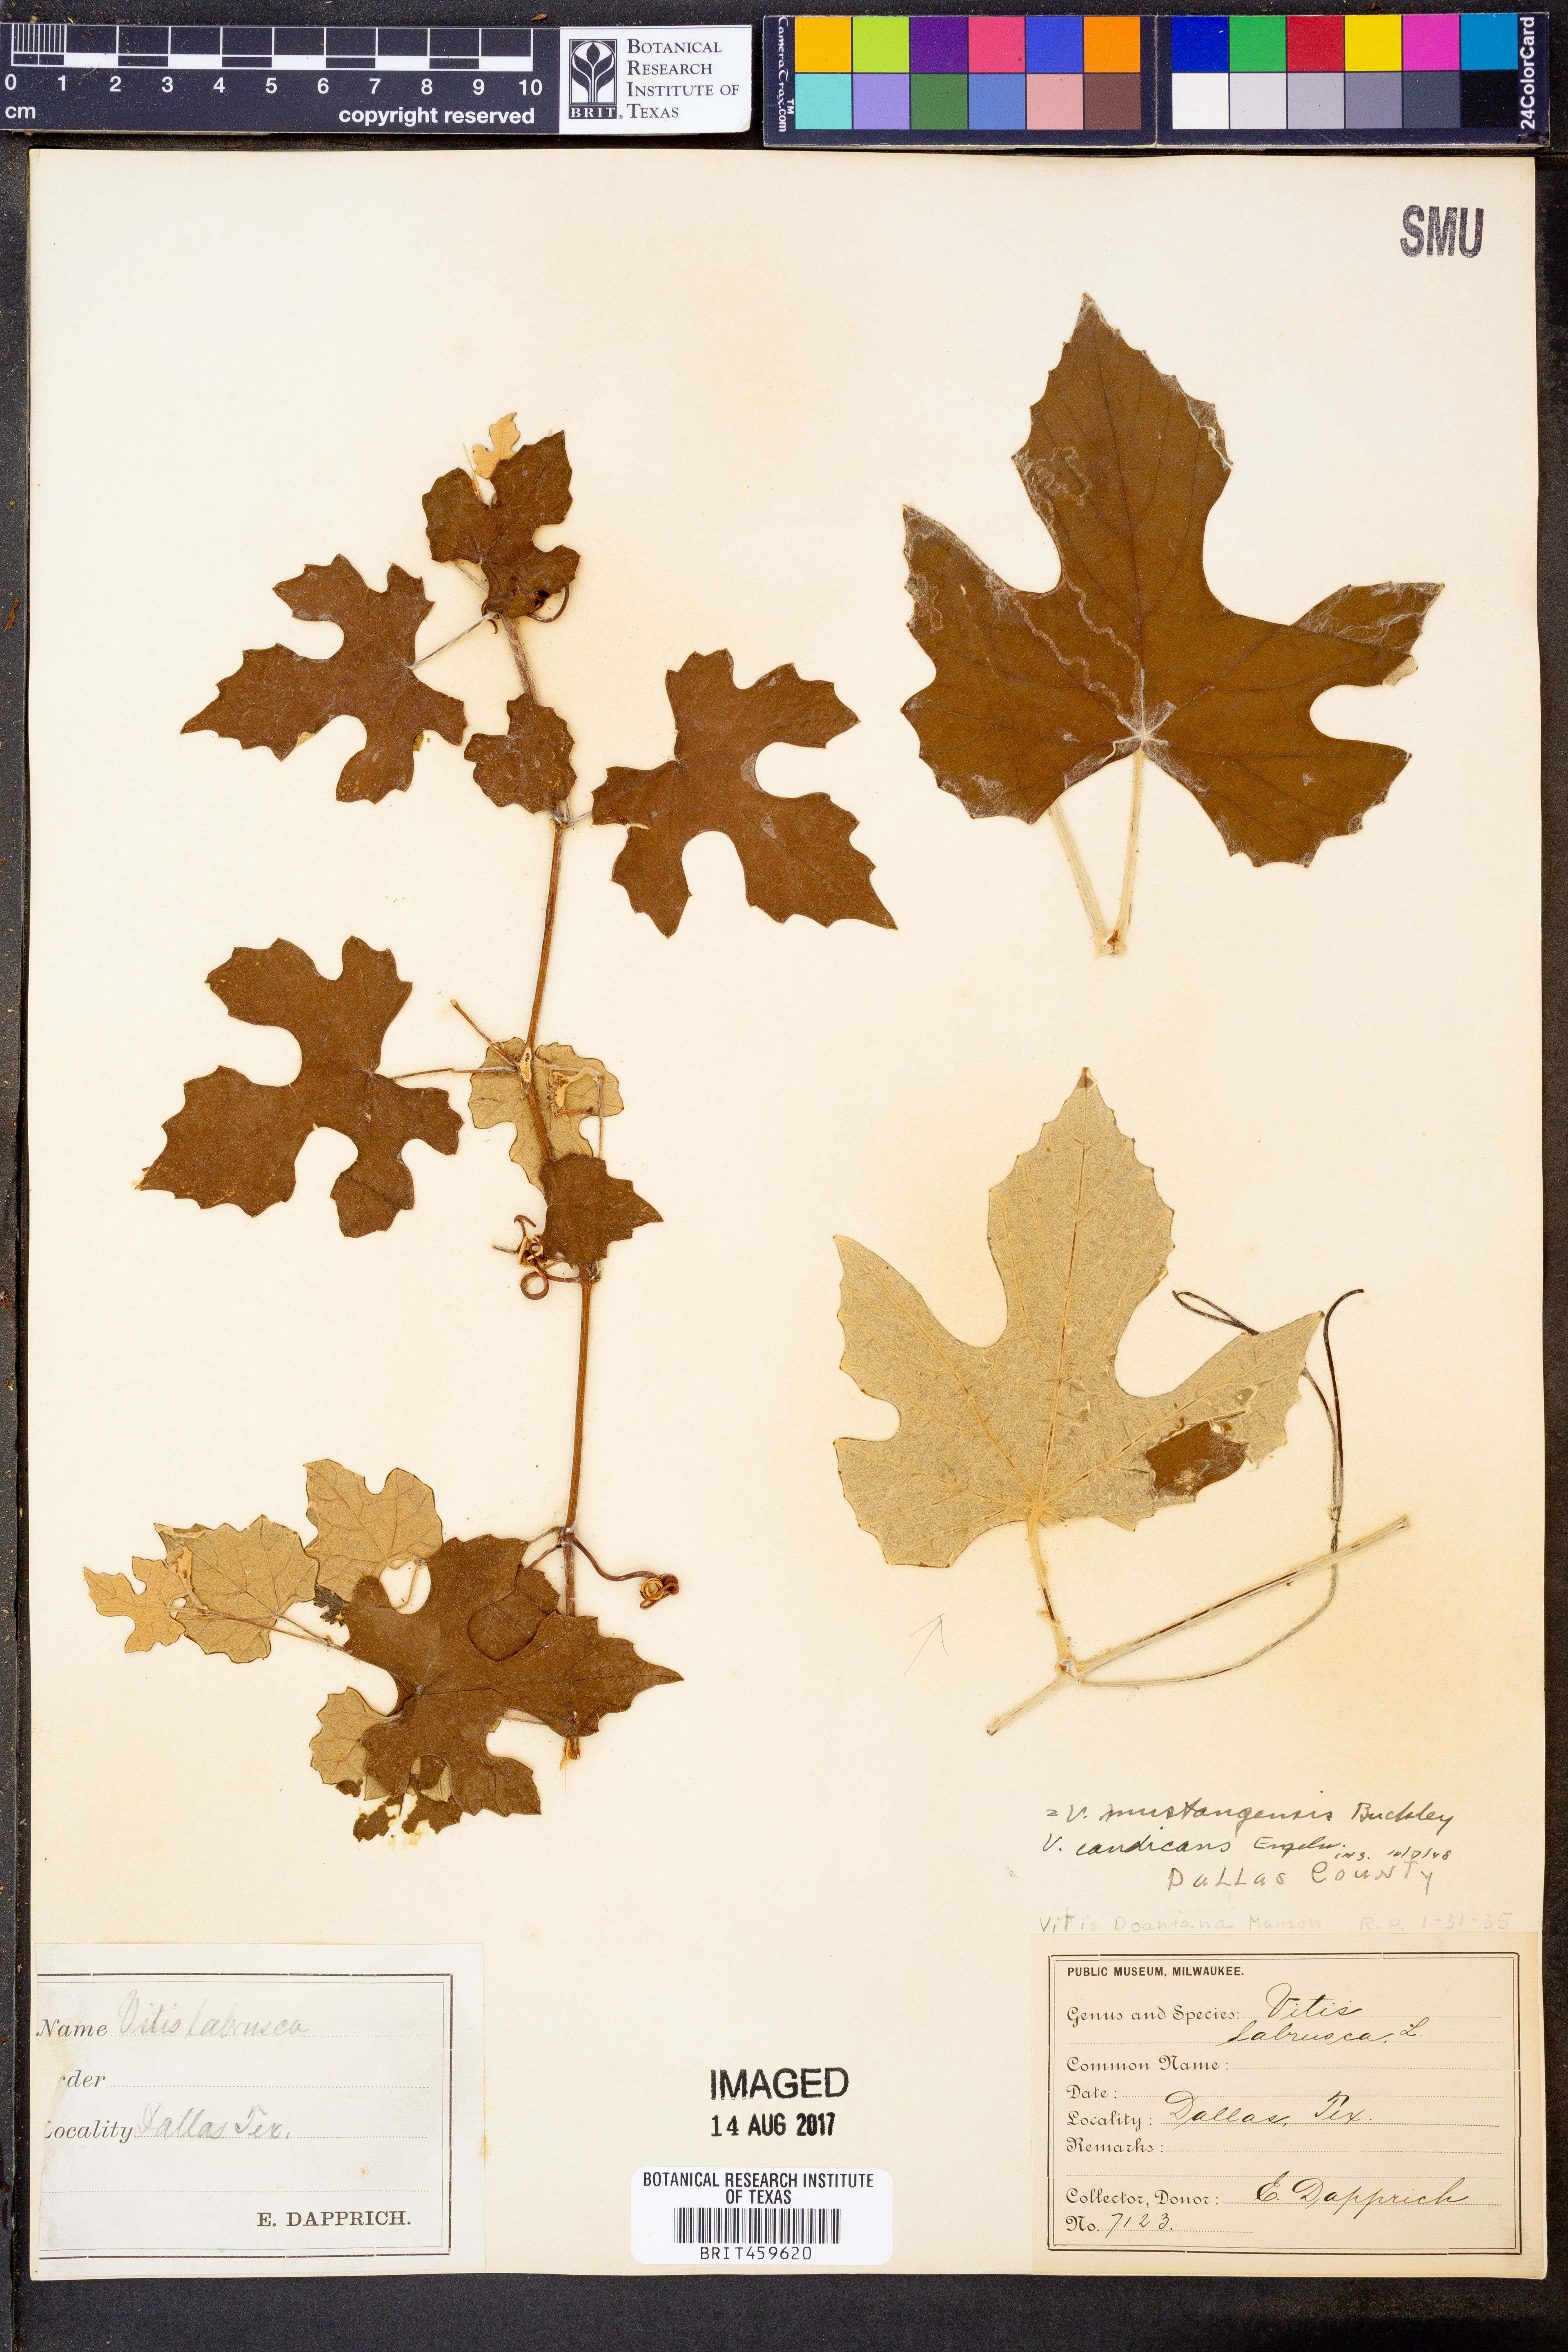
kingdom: Plantae
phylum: Tracheophyta
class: Magnoliopsida
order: Vitales
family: Vitaceae
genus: Vitis
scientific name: Vitis mustangensis
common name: Mustang grape
